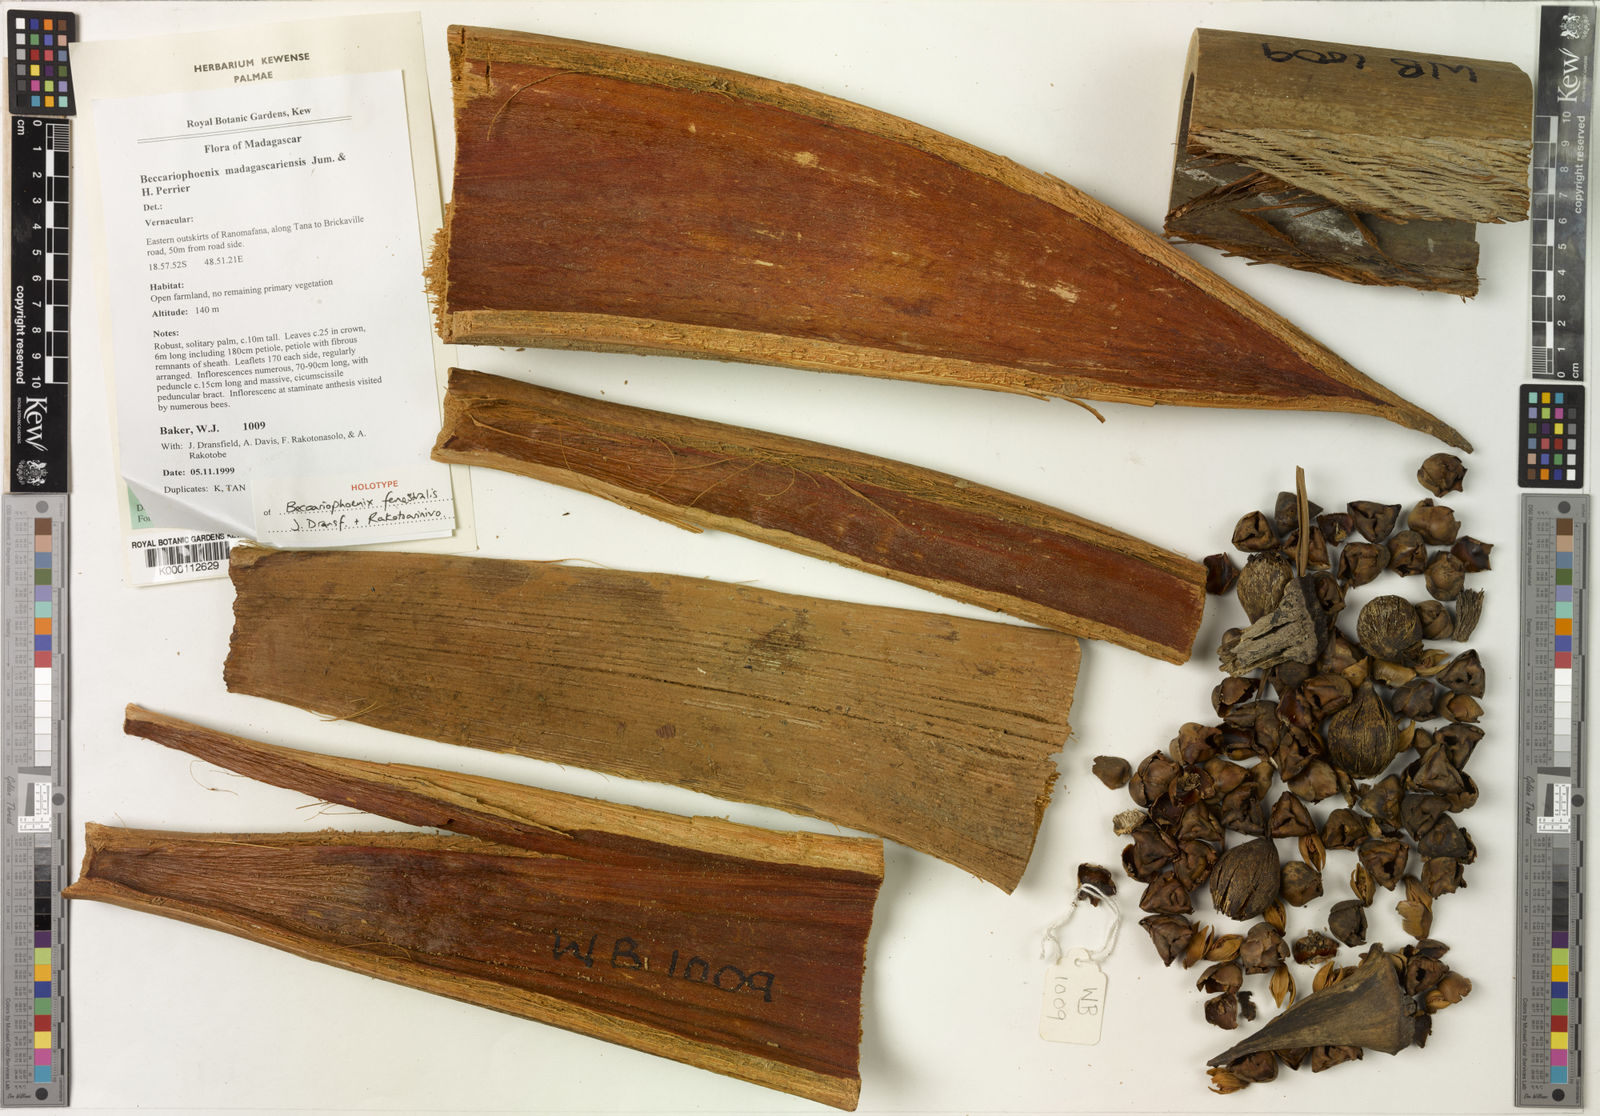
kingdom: Plantae
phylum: Tracheophyta
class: Liliopsida
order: Arecales
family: Arecaceae
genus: Beccariophoenix
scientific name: Beccariophoenix madagascariensis
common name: Manarano palm
